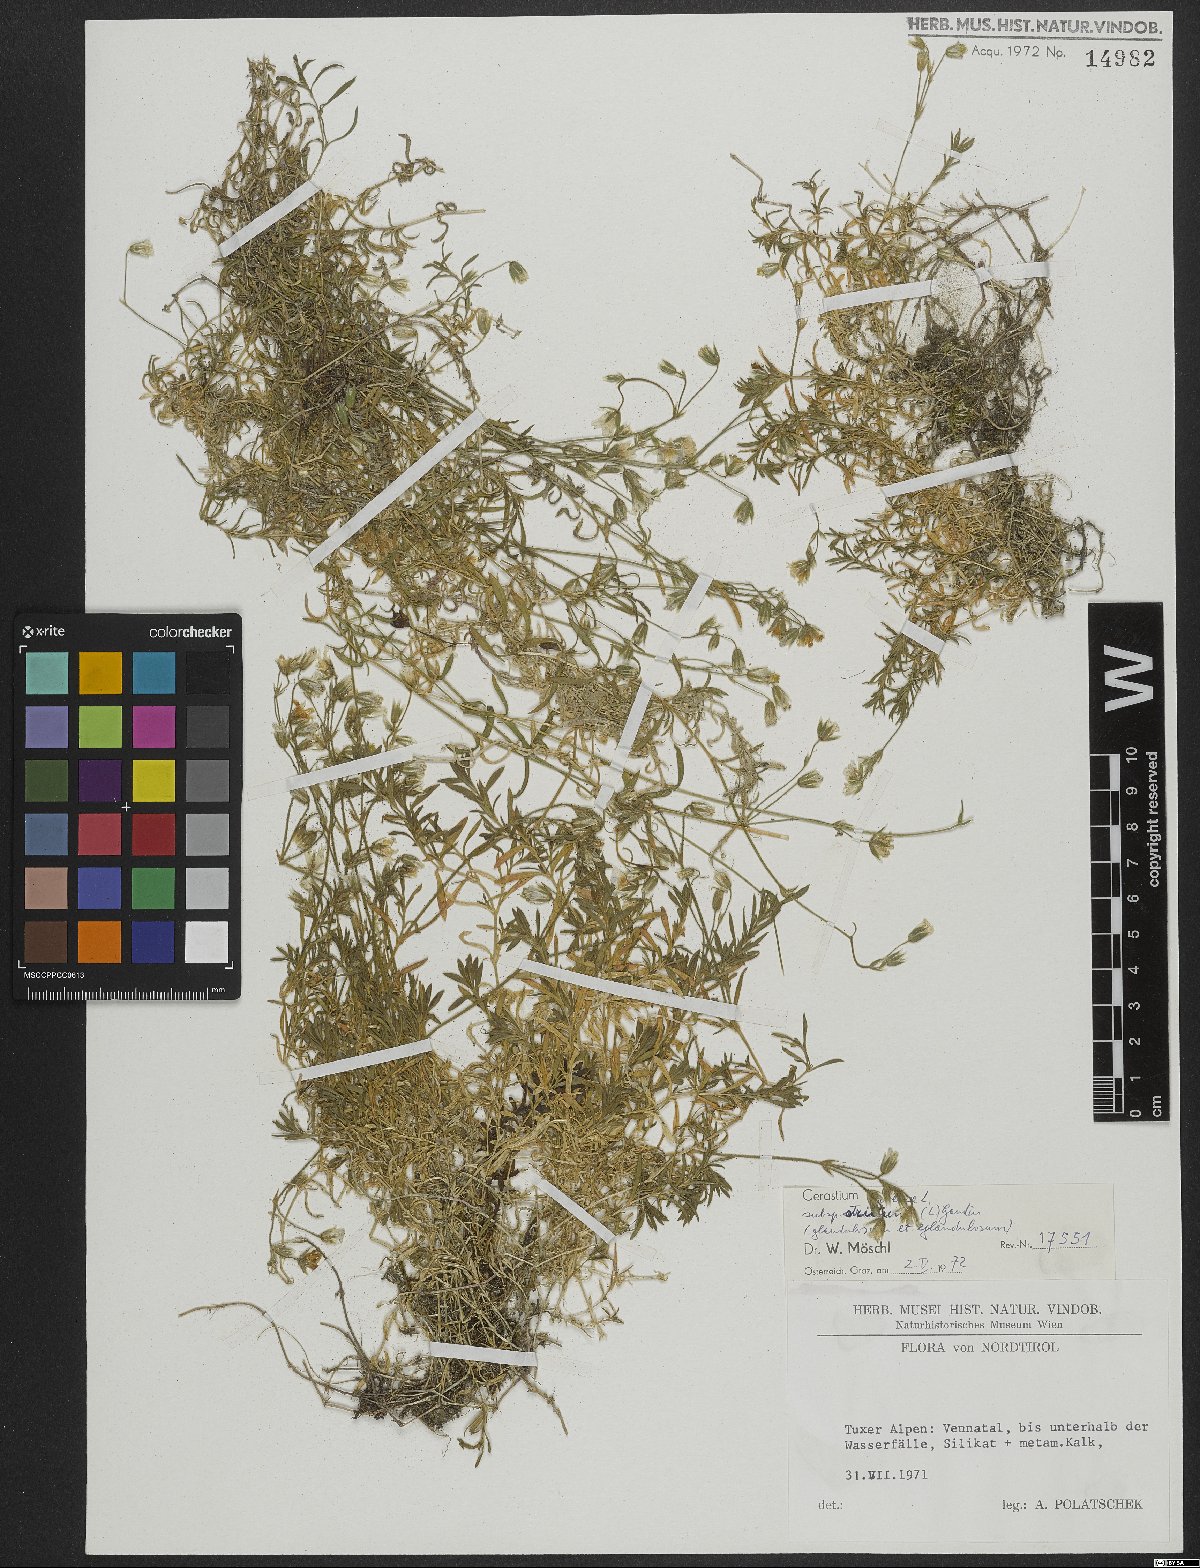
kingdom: Plantae
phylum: Tracheophyta
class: Magnoliopsida
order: Caryophyllales
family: Caryophyllaceae
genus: Cerastium
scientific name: Cerastium elongatum
